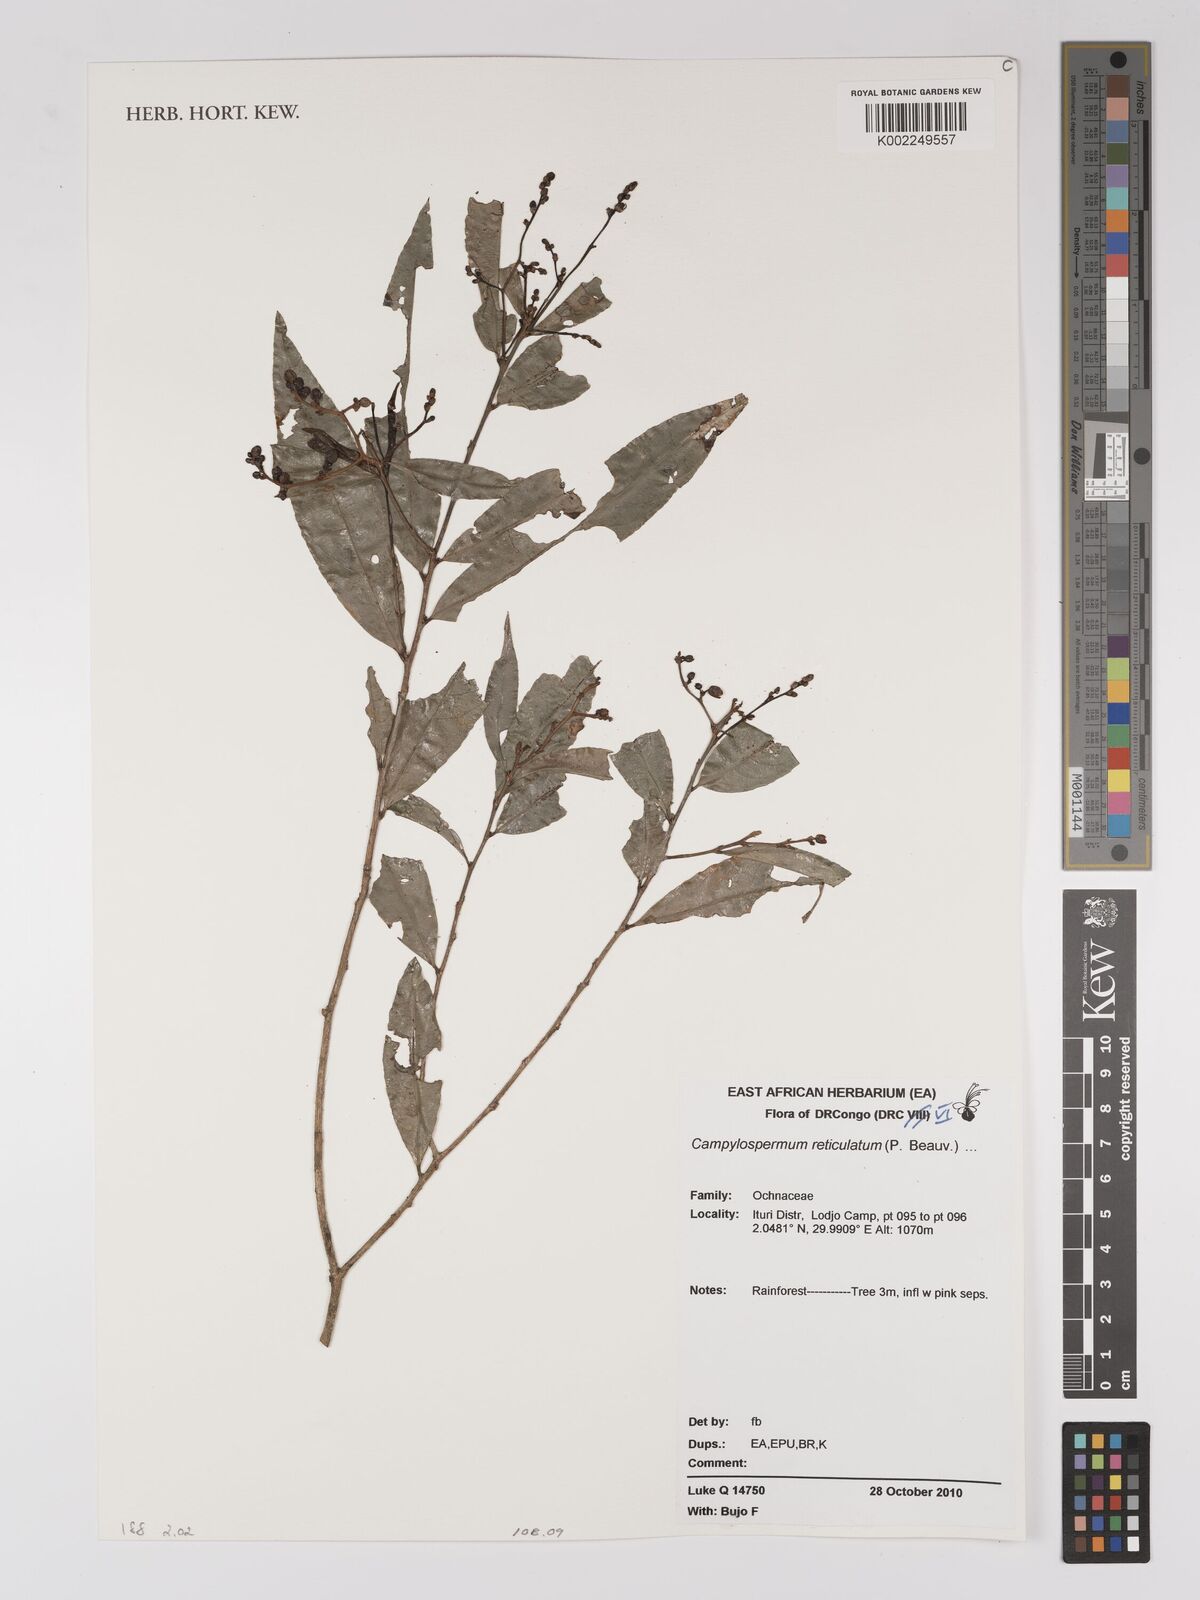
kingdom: Plantae
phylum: Tracheophyta
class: Magnoliopsida
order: Malpighiales
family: Ochnaceae
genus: Campylospermum
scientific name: Campylospermum reticulatum
